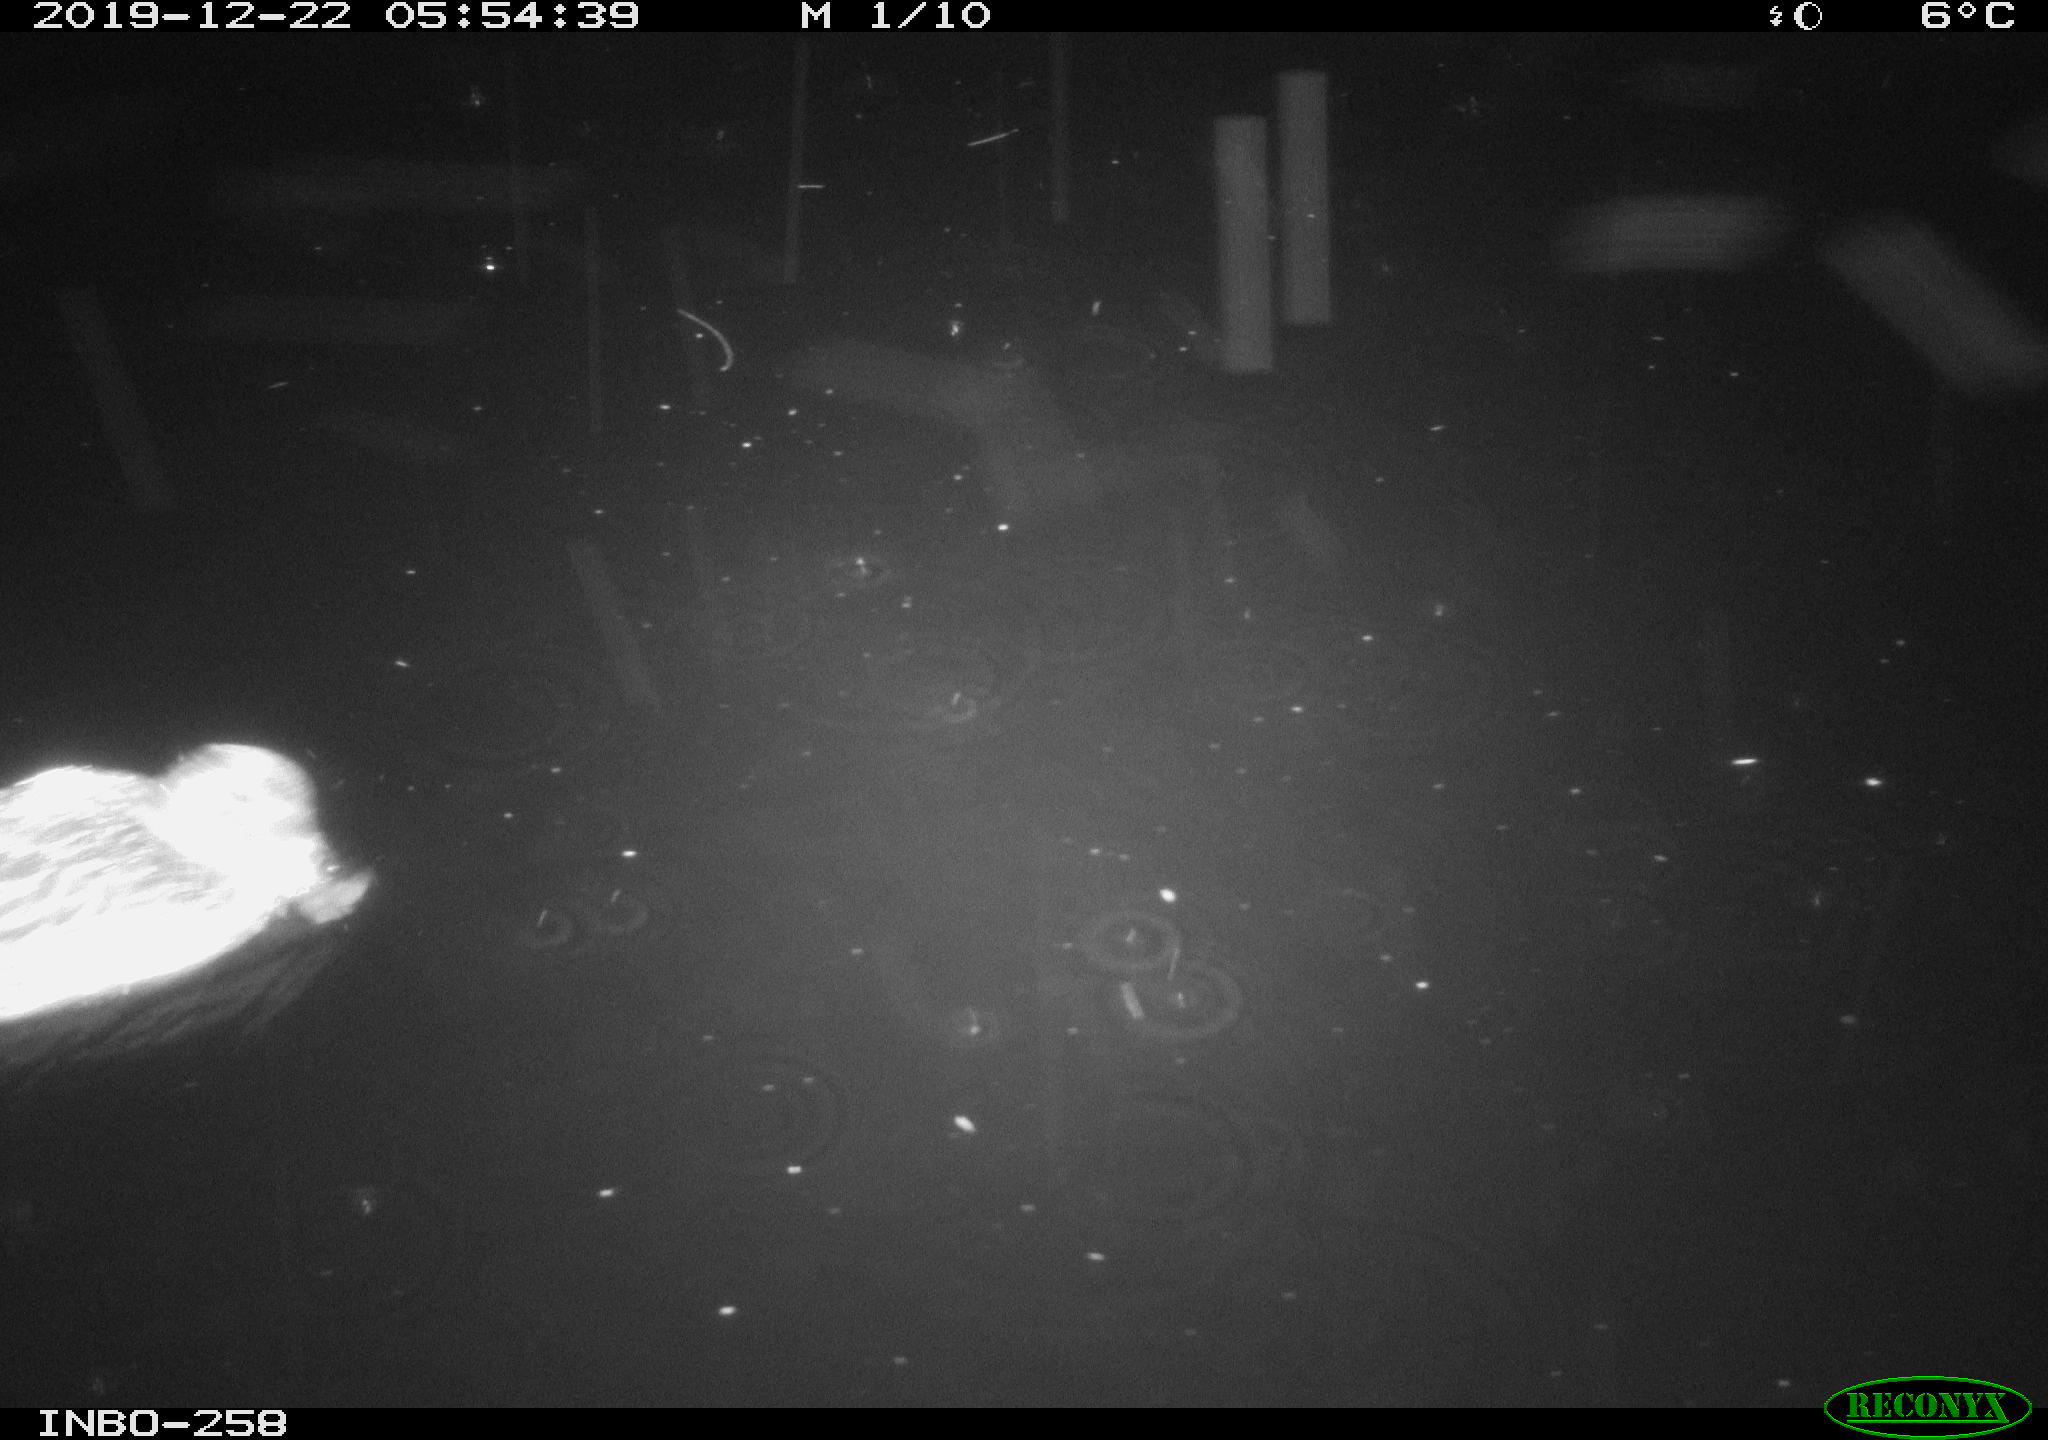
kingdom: Animalia
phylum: Chordata
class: Aves
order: Anseriformes
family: Anatidae
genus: Anas
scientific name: Anas platyrhynchos
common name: Mallard
